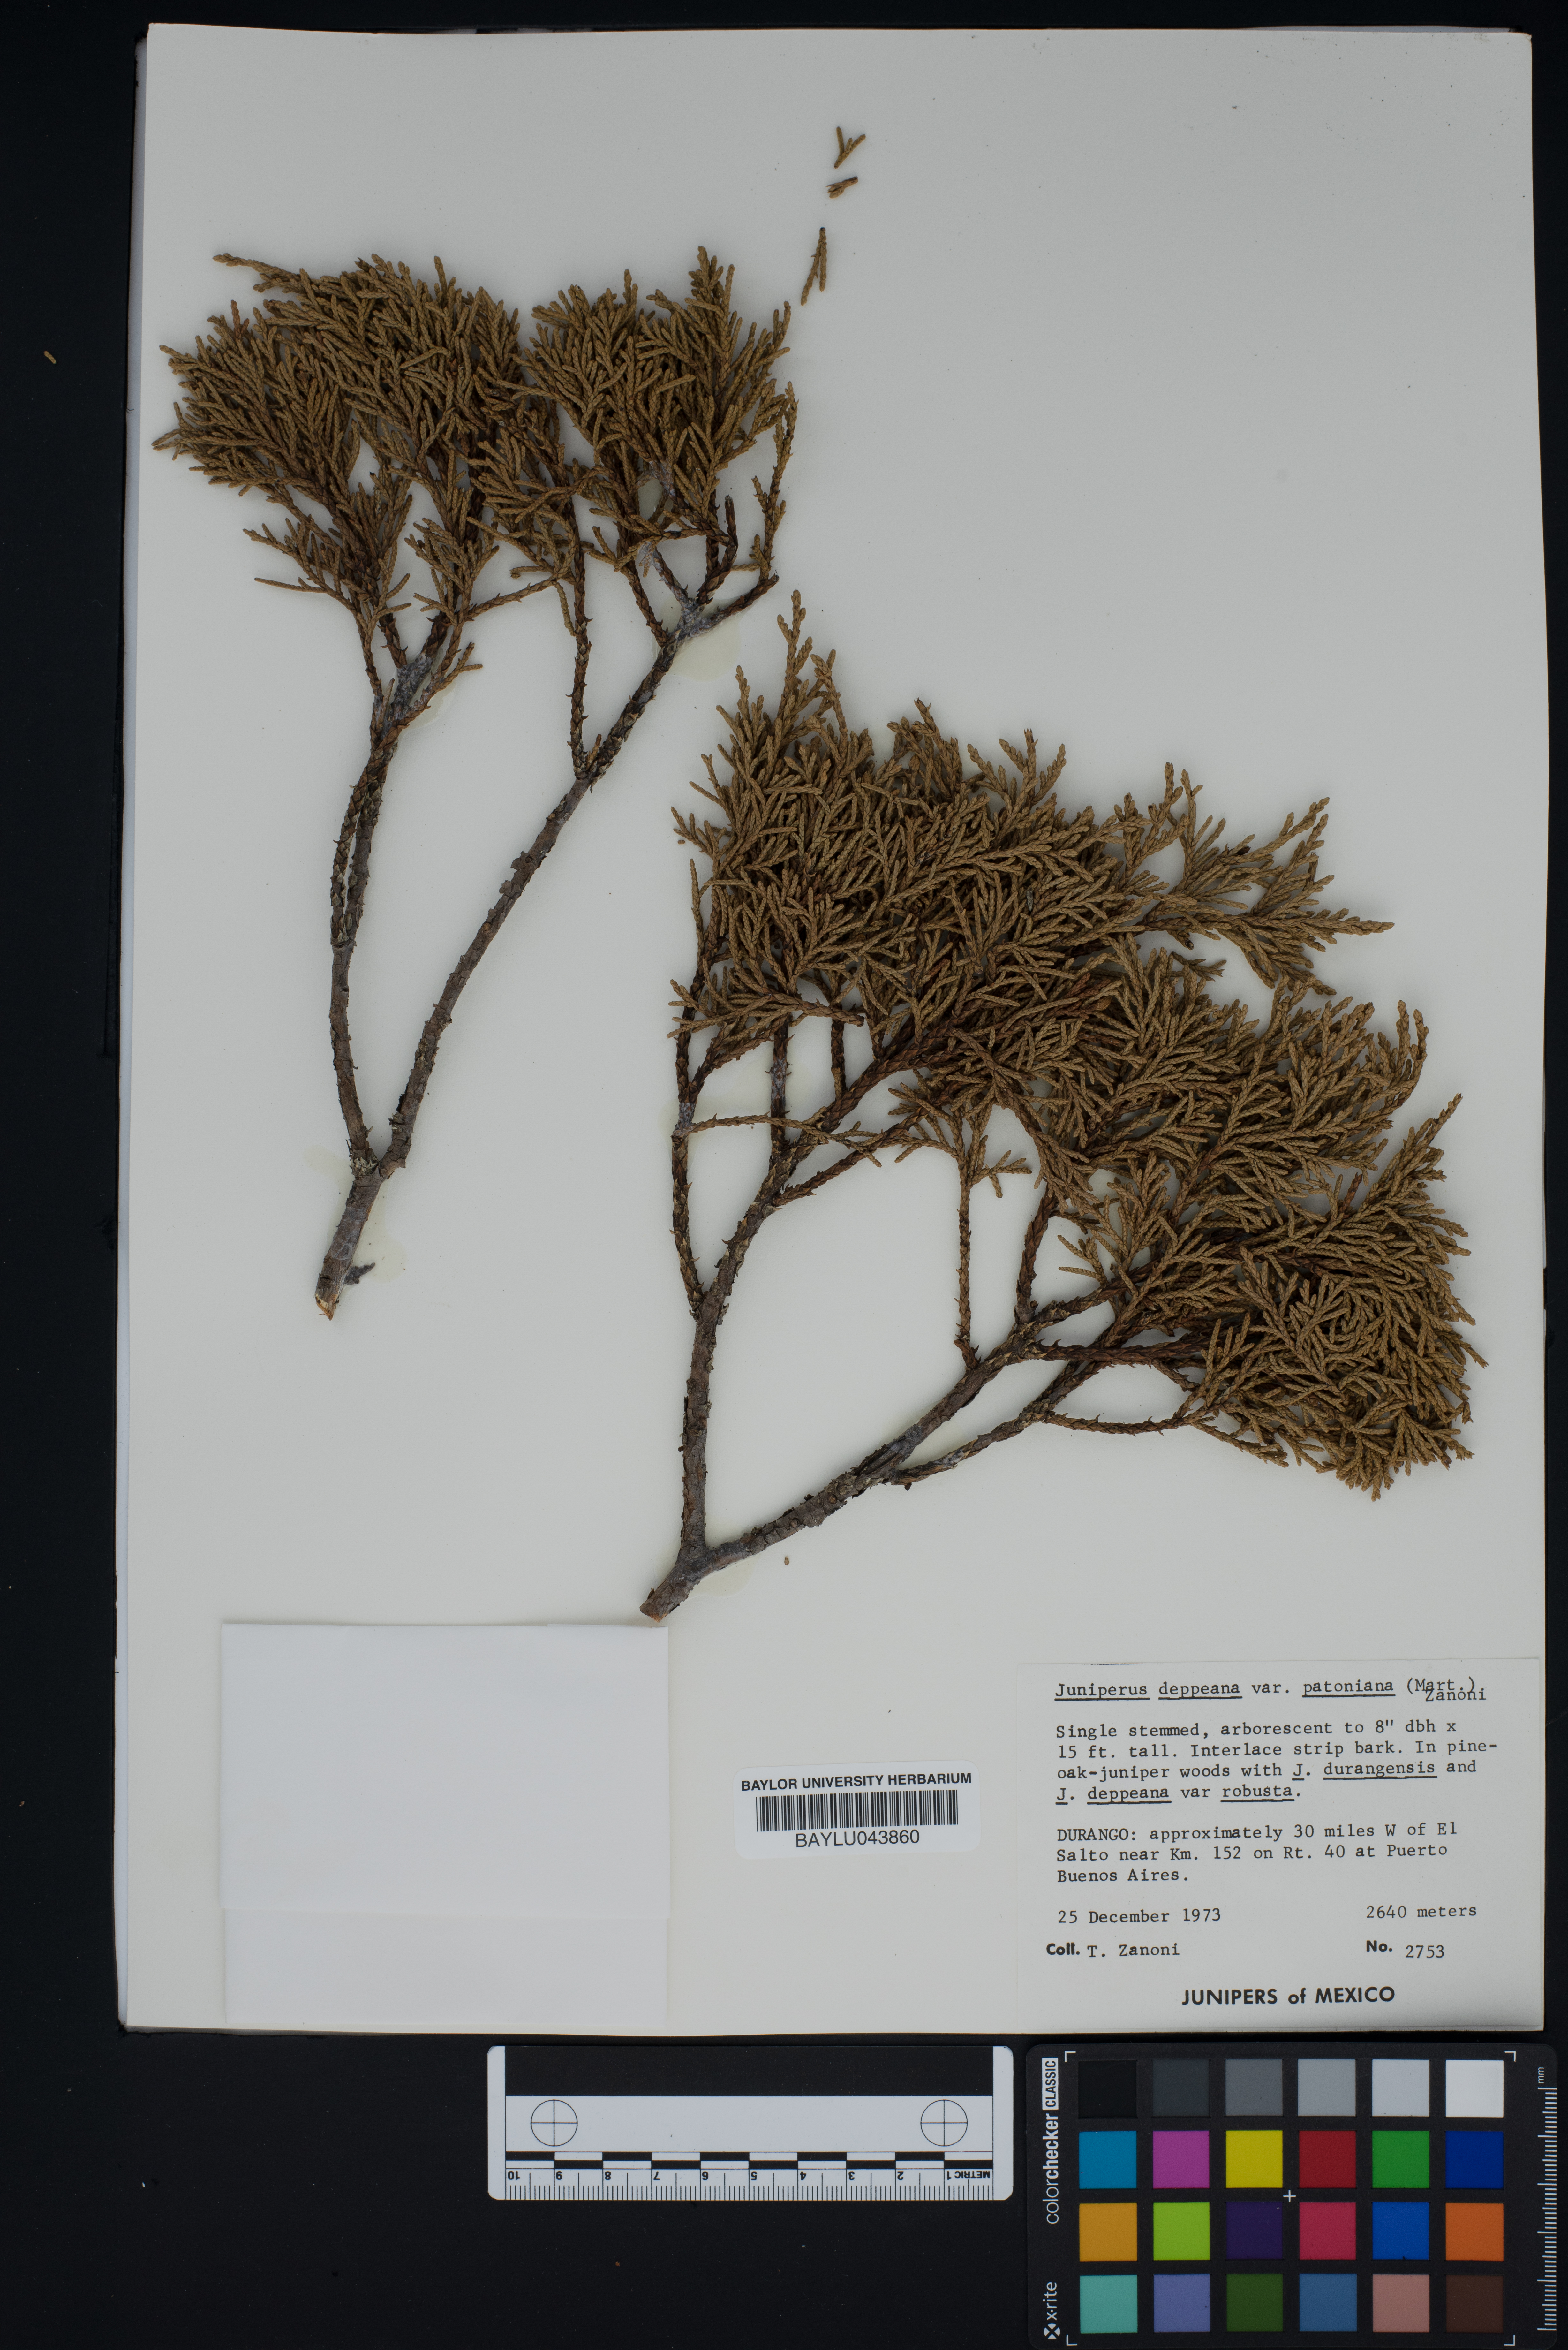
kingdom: Plantae
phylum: Tracheophyta
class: Pinopsida
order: Pinales
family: Cupressaceae
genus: Juniperus
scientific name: Juniperus deppeana
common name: Alligator juniper
